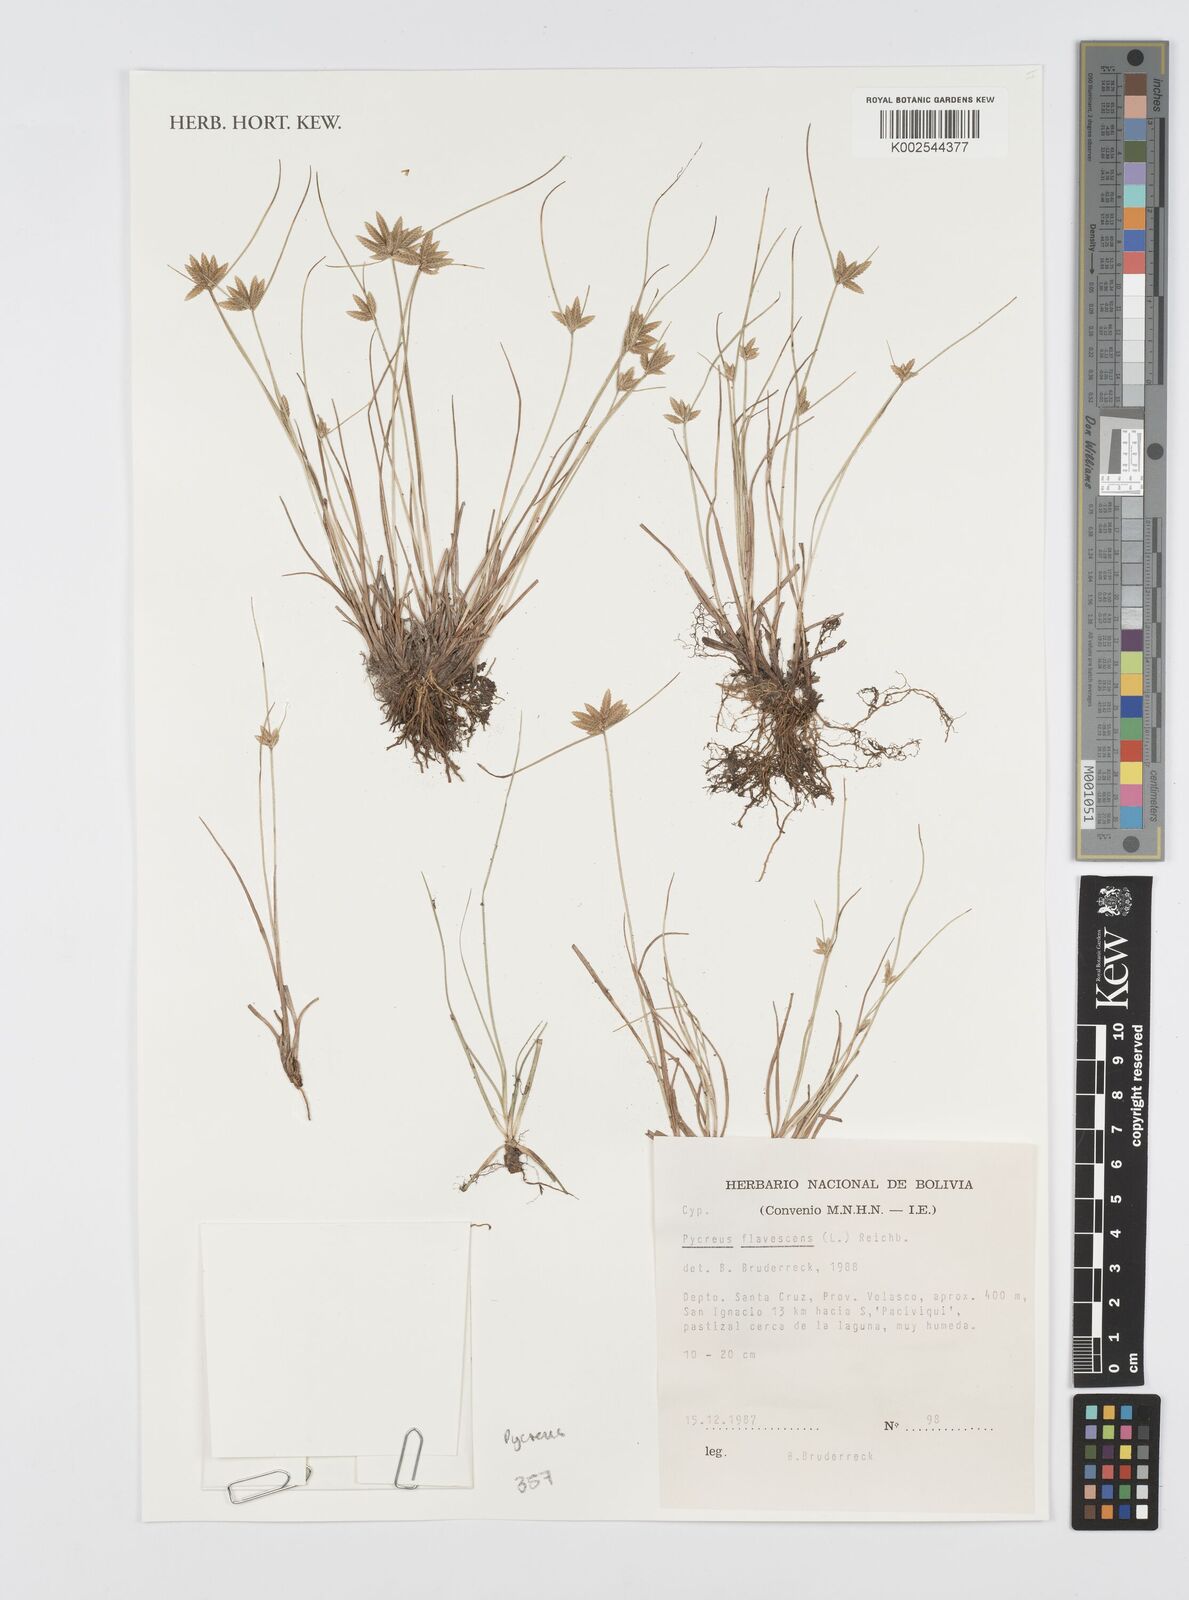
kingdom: Plantae
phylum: Tracheophyta
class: Liliopsida
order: Poales
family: Cyperaceae
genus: Cyperus
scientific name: Cyperus flavescens
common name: Yellow galingale
